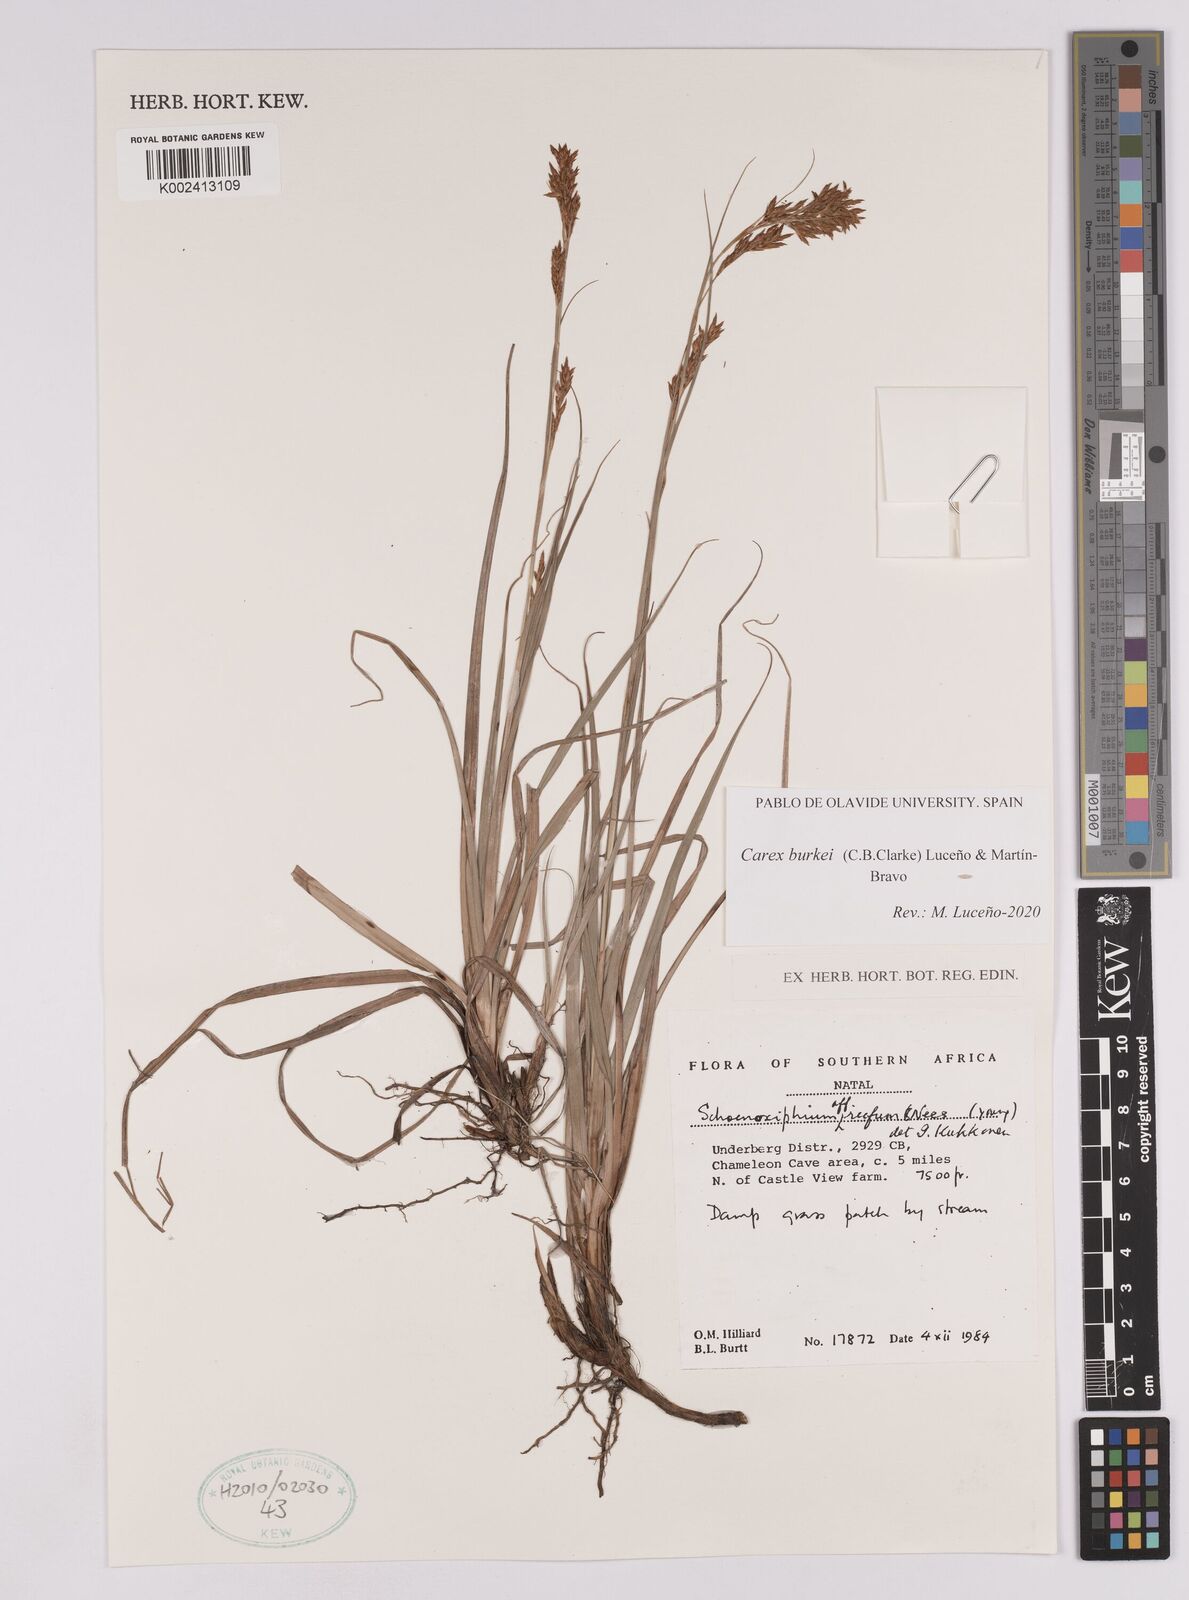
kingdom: Plantae
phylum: Tracheophyta
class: Liliopsida
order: Poales
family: Cyperaceae
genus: Carex
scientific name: Carex burkei
